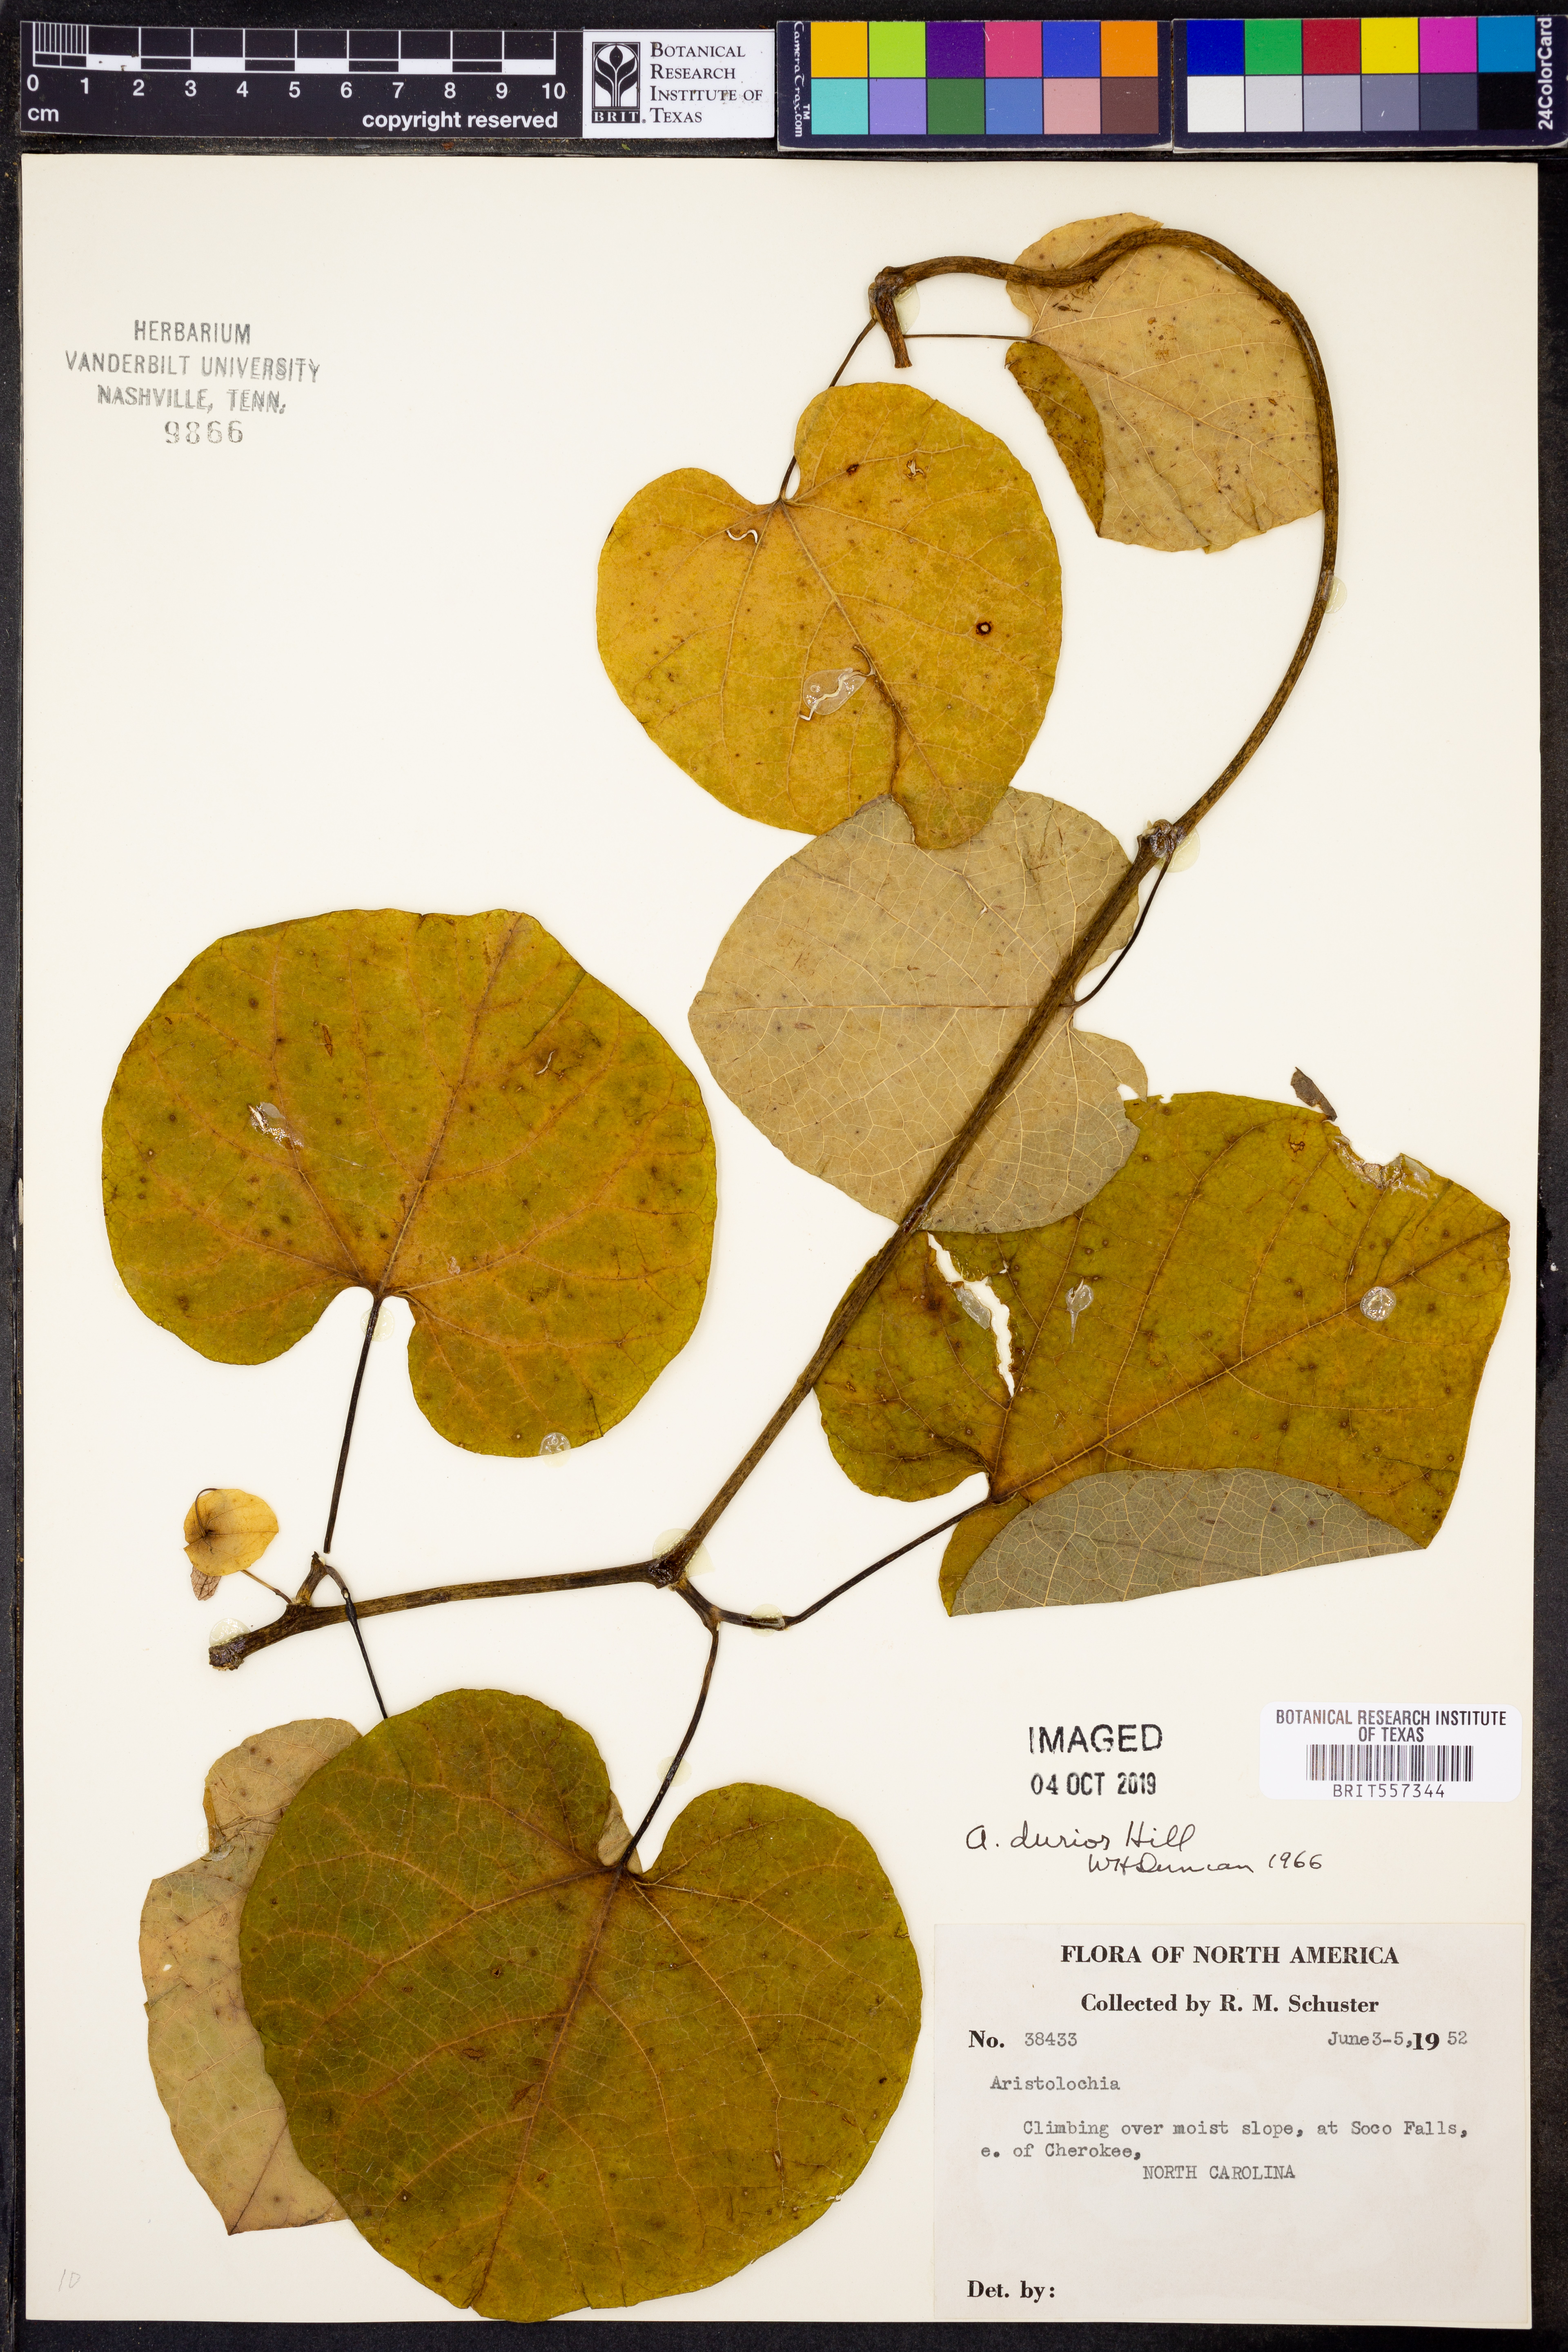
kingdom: Plantae
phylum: Tracheophyta
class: Magnoliopsida
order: Lamiales
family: Bignoniaceae
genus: Bignonia
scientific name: Bignonia capreolata
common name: Crossvine
